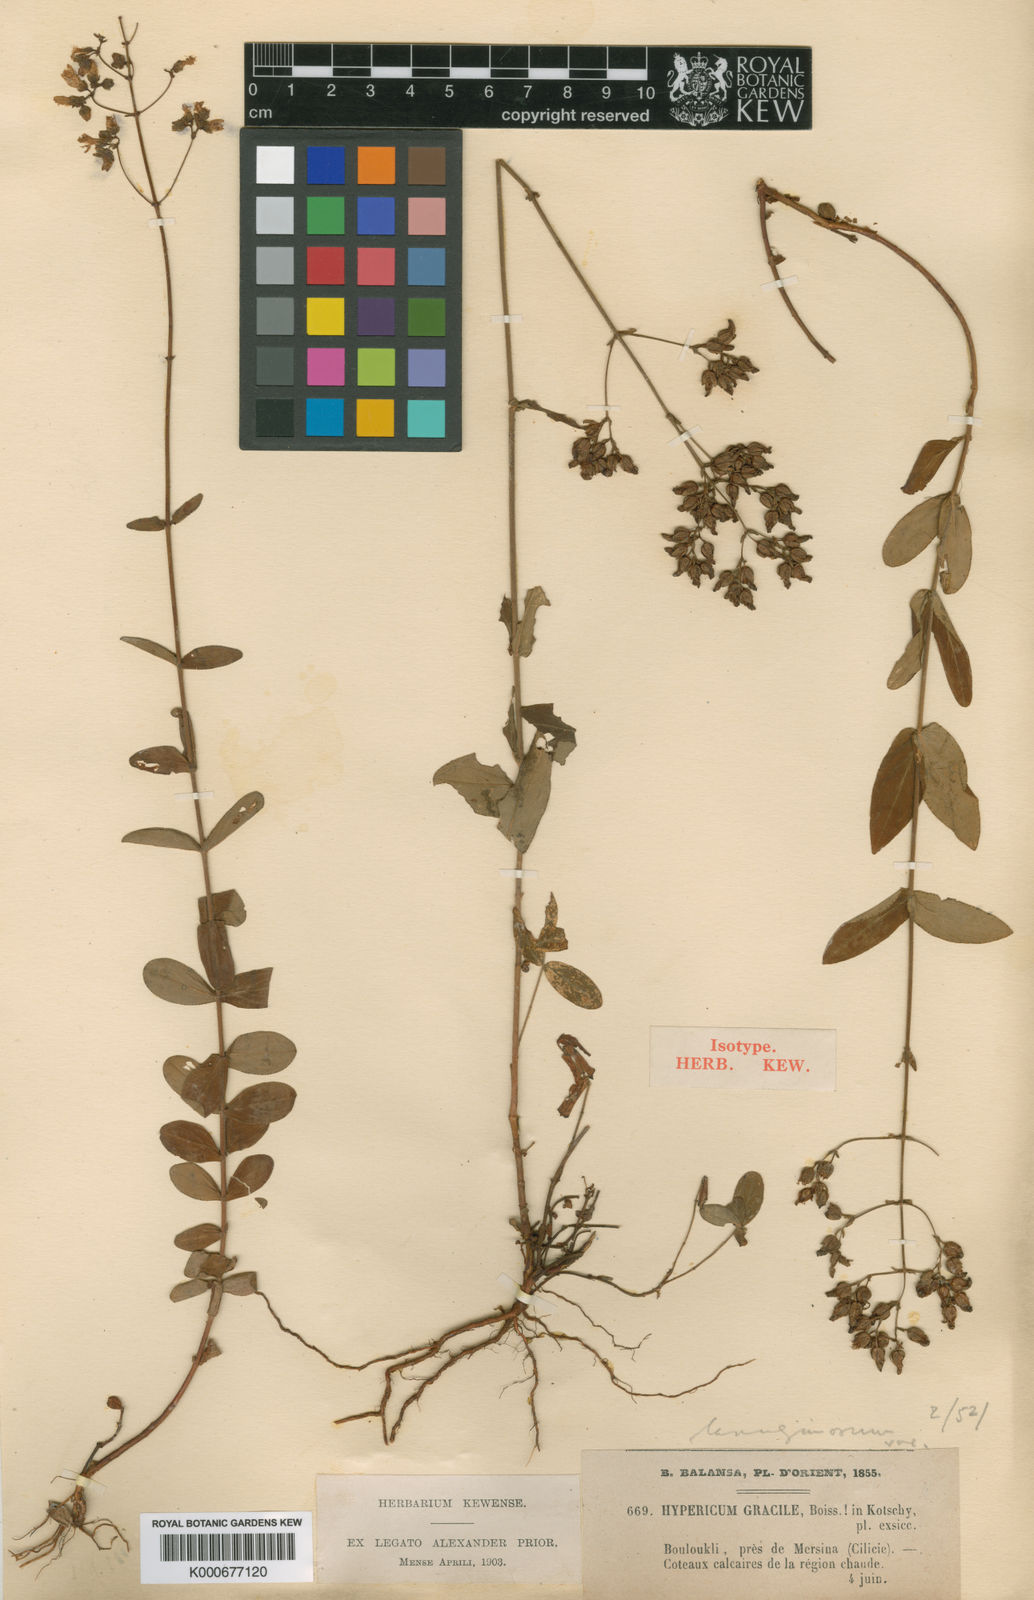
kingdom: Plantae
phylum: Tracheophyta
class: Magnoliopsida
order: Malpighiales
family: Hypericaceae
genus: Hypericum
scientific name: Hypericum lanuginosum
